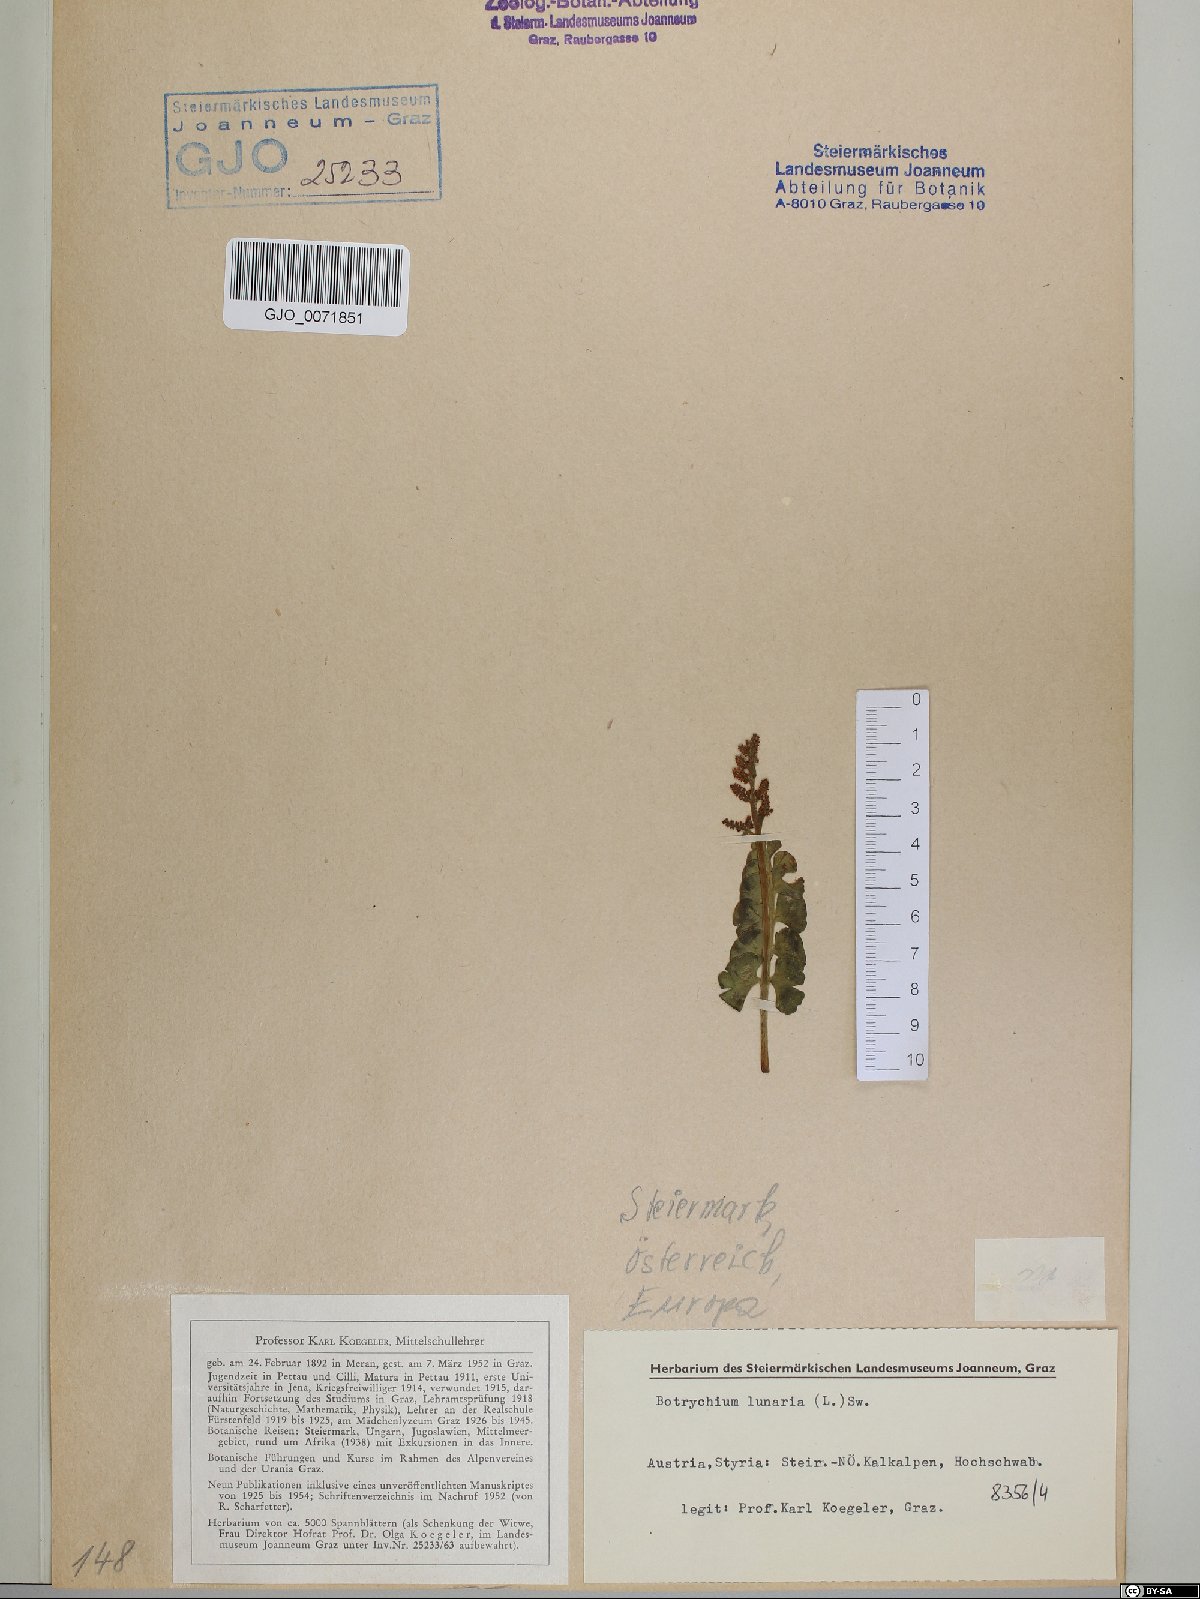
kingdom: Plantae
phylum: Tracheophyta
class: Polypodiopsida
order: Ophioglossales
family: Ophioglossaceae
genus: Botrychium
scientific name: Botrychium lunaria
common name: Moonwort
